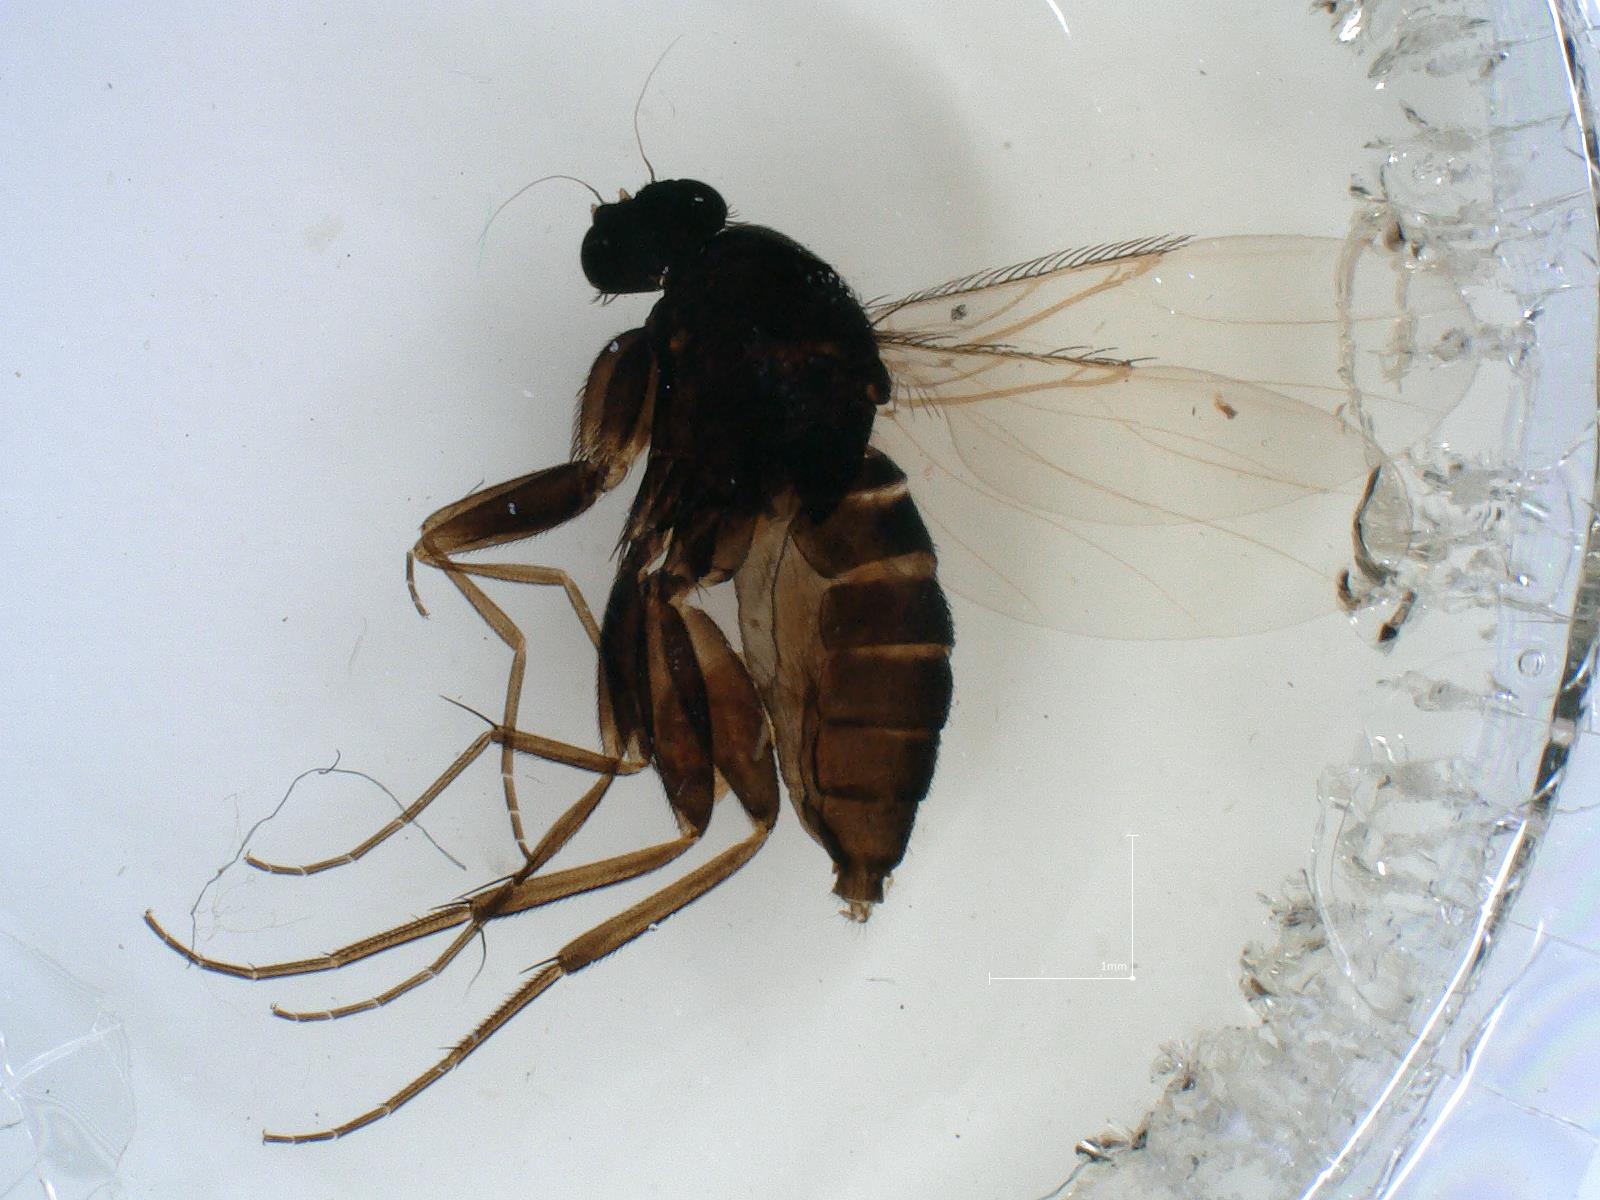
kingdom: Animalia
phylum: Arthropoda
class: Insecta
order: Diptera
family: Phoridae
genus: Megaselia
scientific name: Megaselia tenebricola
